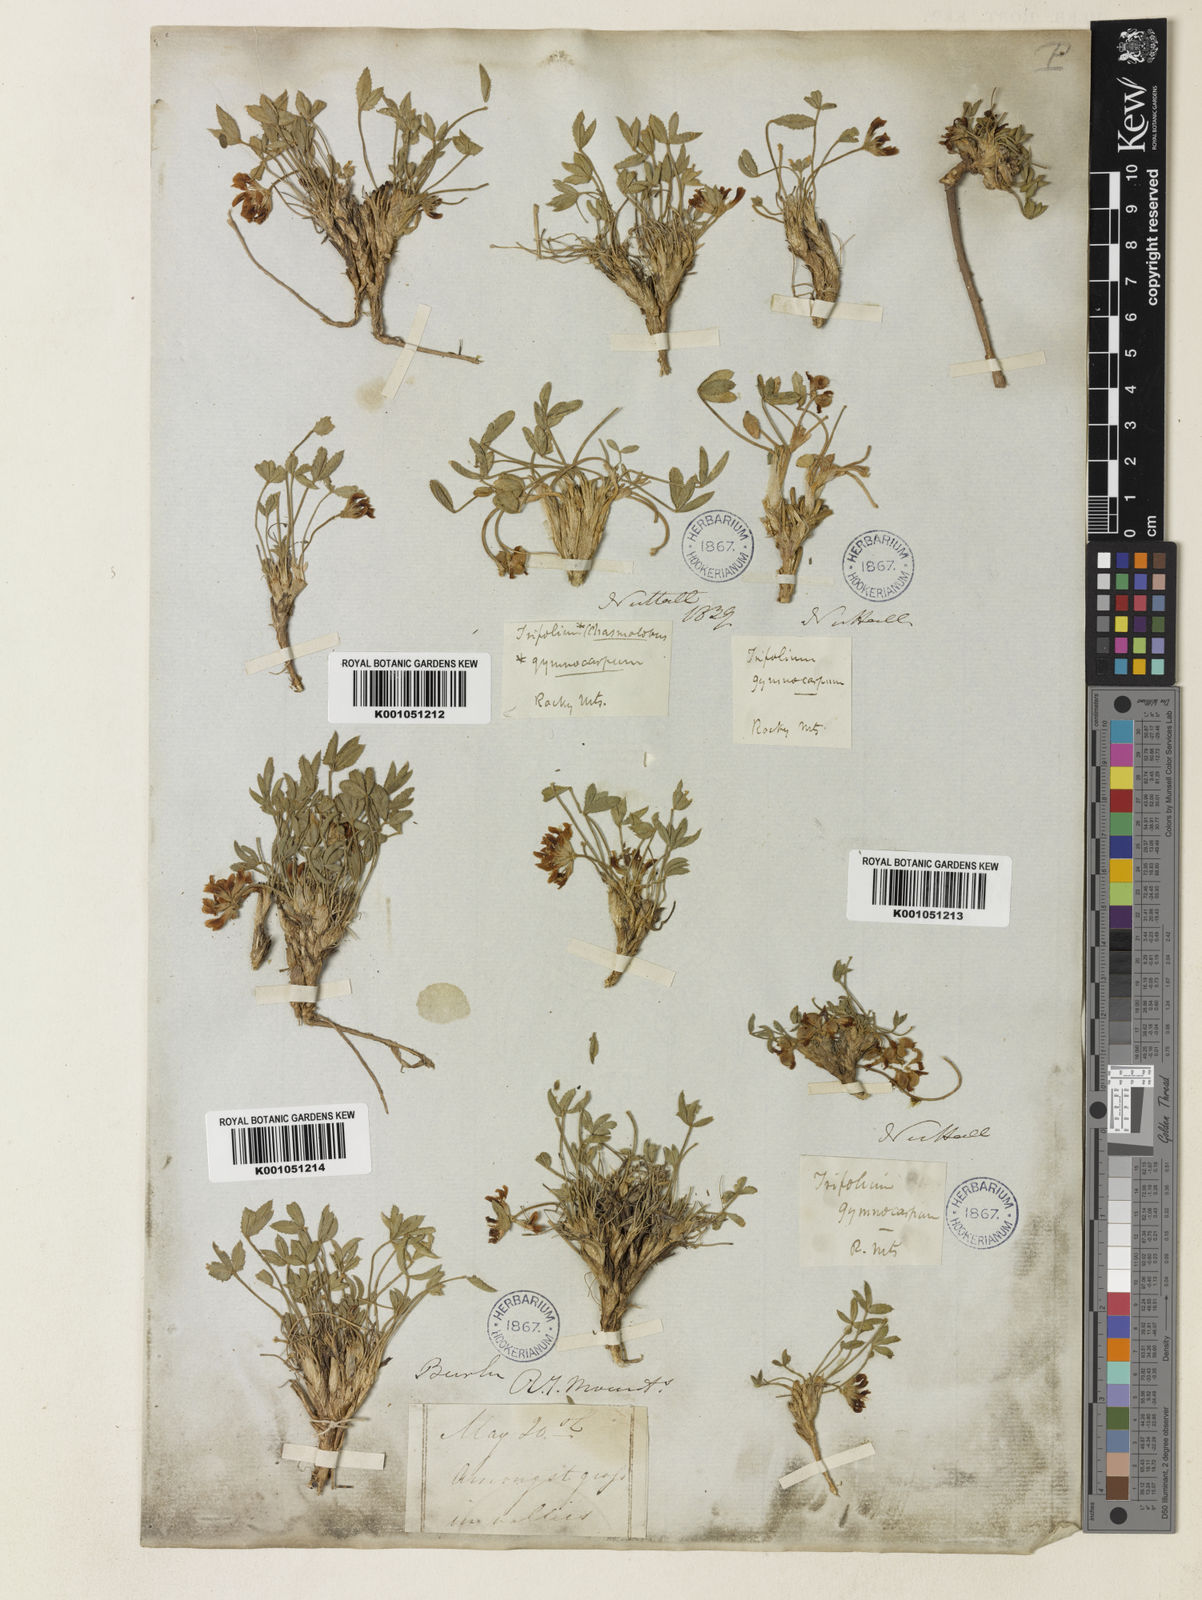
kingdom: Plantae
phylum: Tracheophyta
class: Magnoliopsida
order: Fabales
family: Fabaceae
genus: Trifolium
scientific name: Trifolium gymnocarpon
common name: Tufted clover
